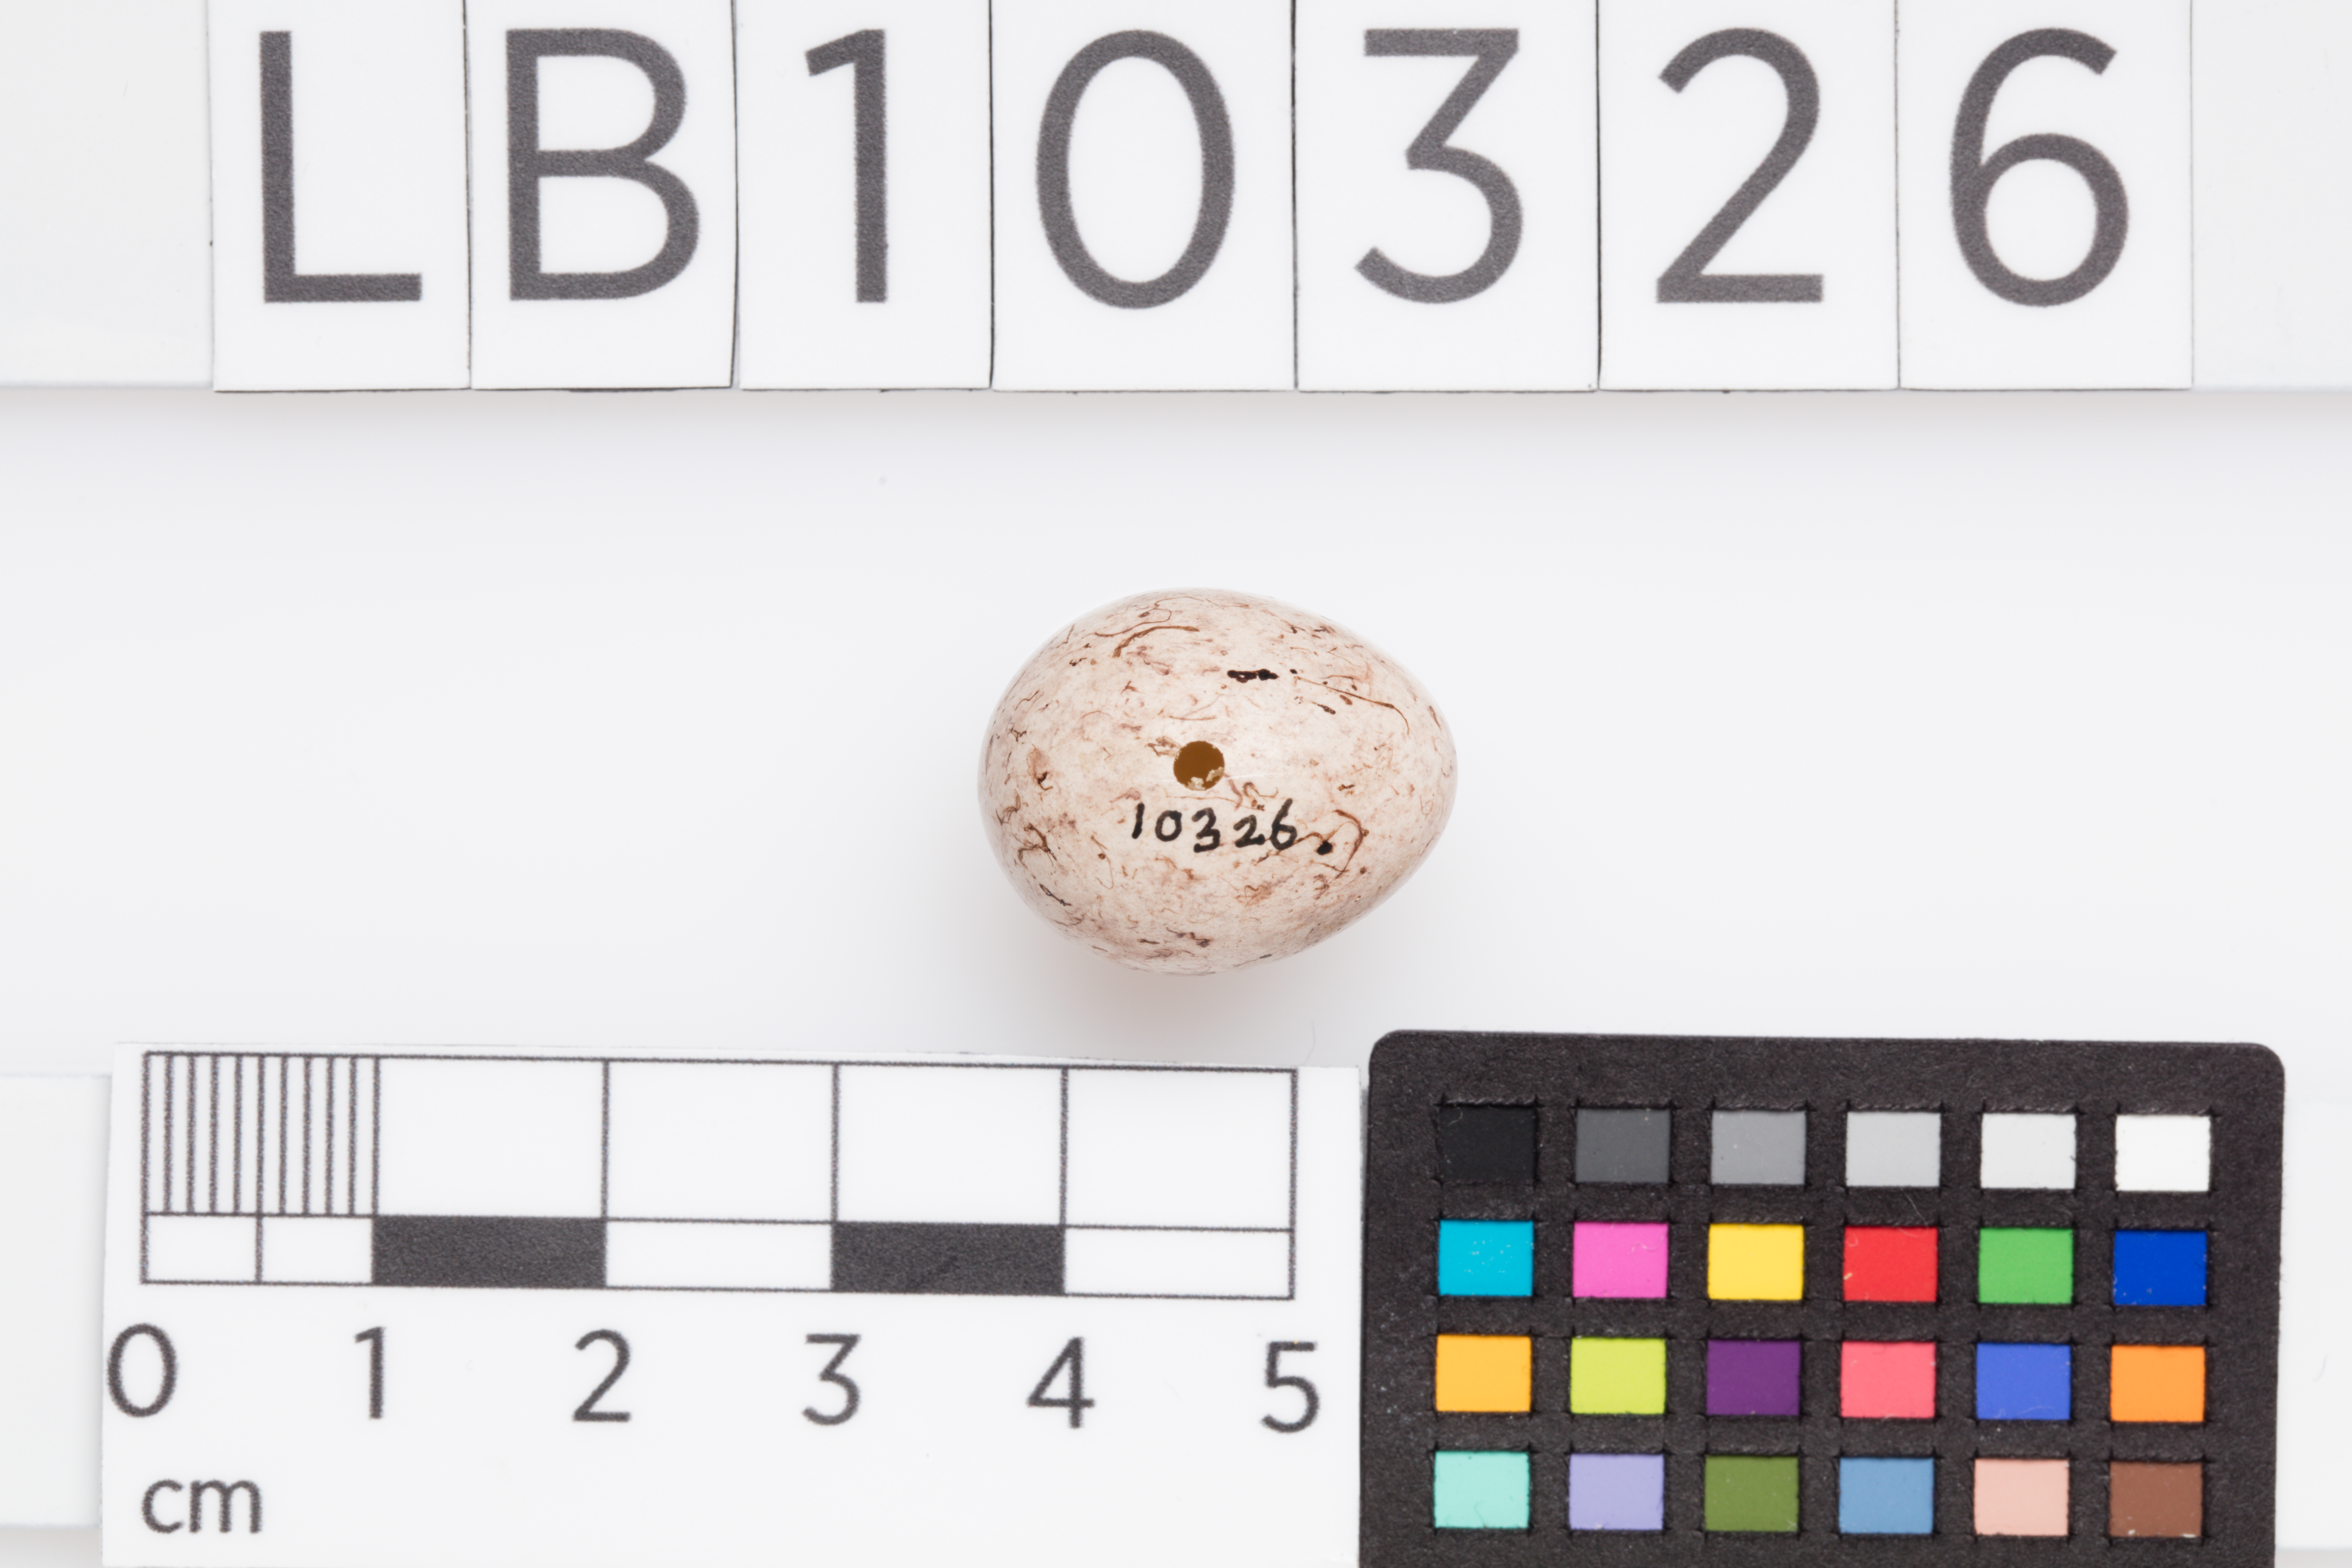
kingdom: Animalia
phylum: Chordata
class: Aves
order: Passeriformes
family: Emberizidae
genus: Emberiza
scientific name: Emberiza citrinella
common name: Yellowhammer
